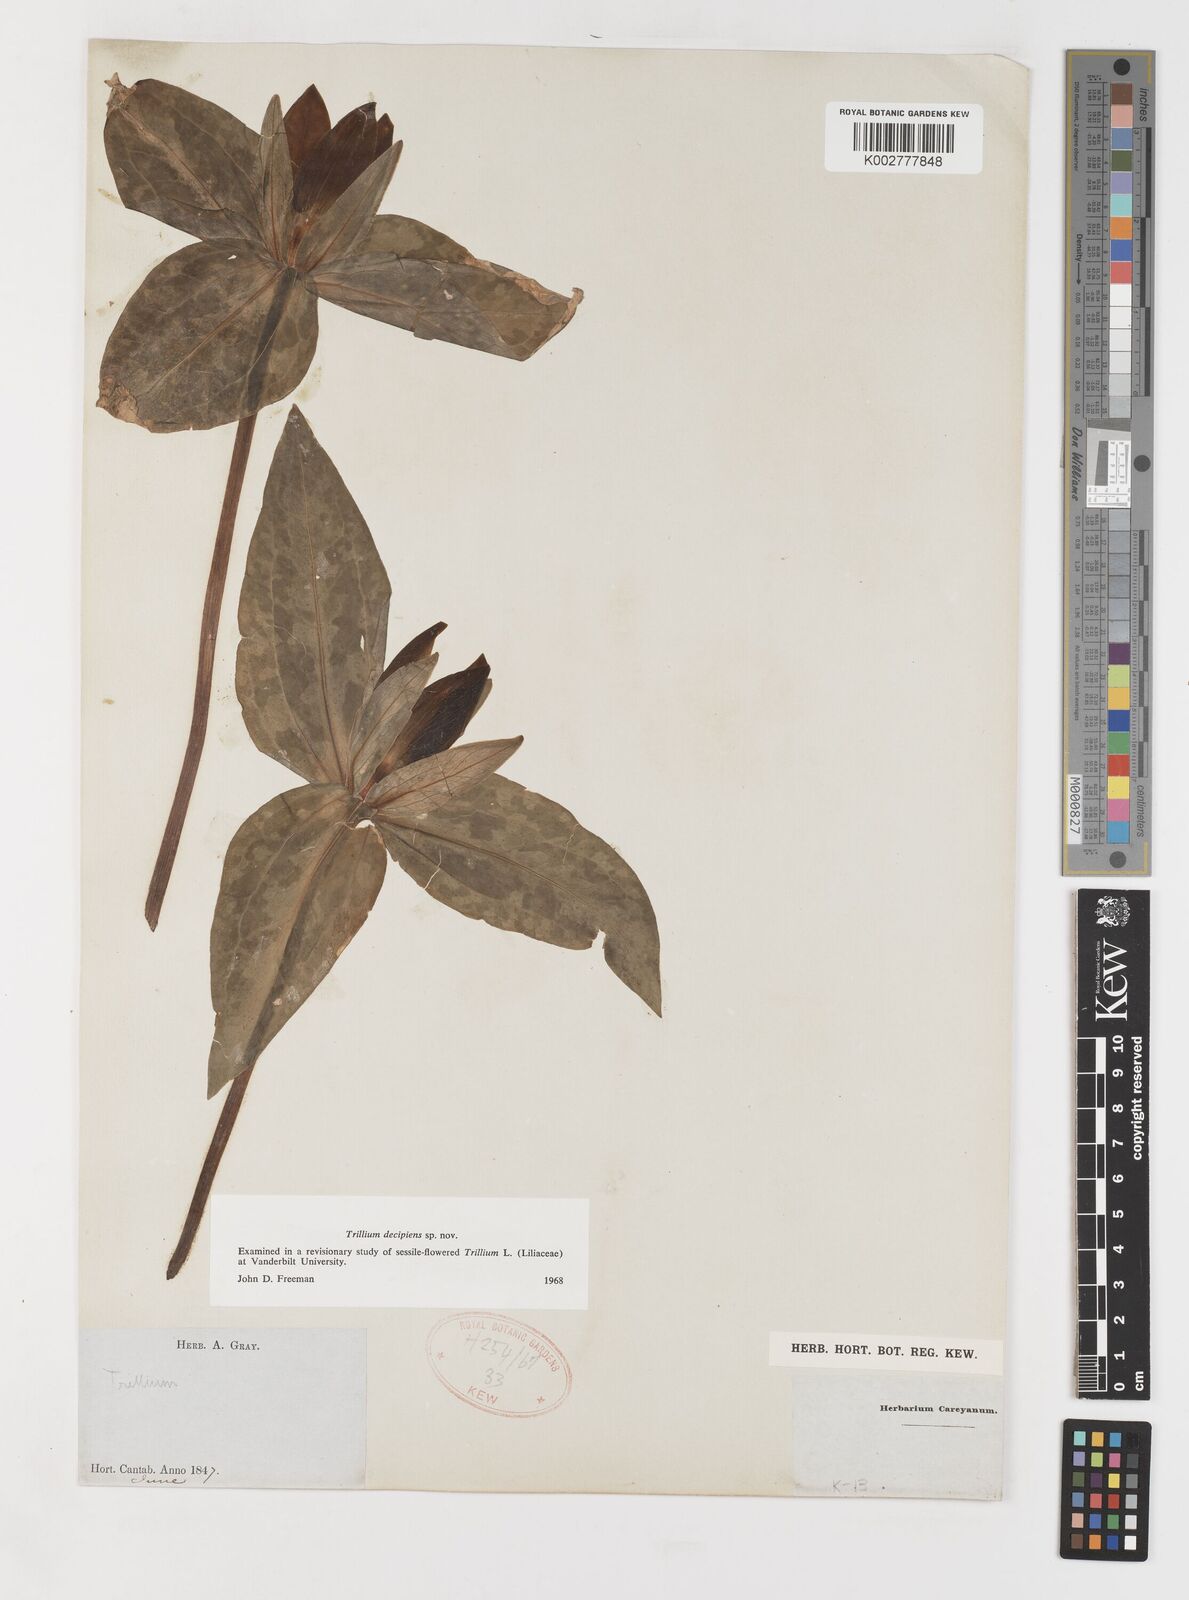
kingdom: Plantae
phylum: Tracheophyta
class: Liliopsida
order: Liliales
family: Melanthiaceae
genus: Trillium
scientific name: Trillium decipiens
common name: Chattahoochee river trillium
